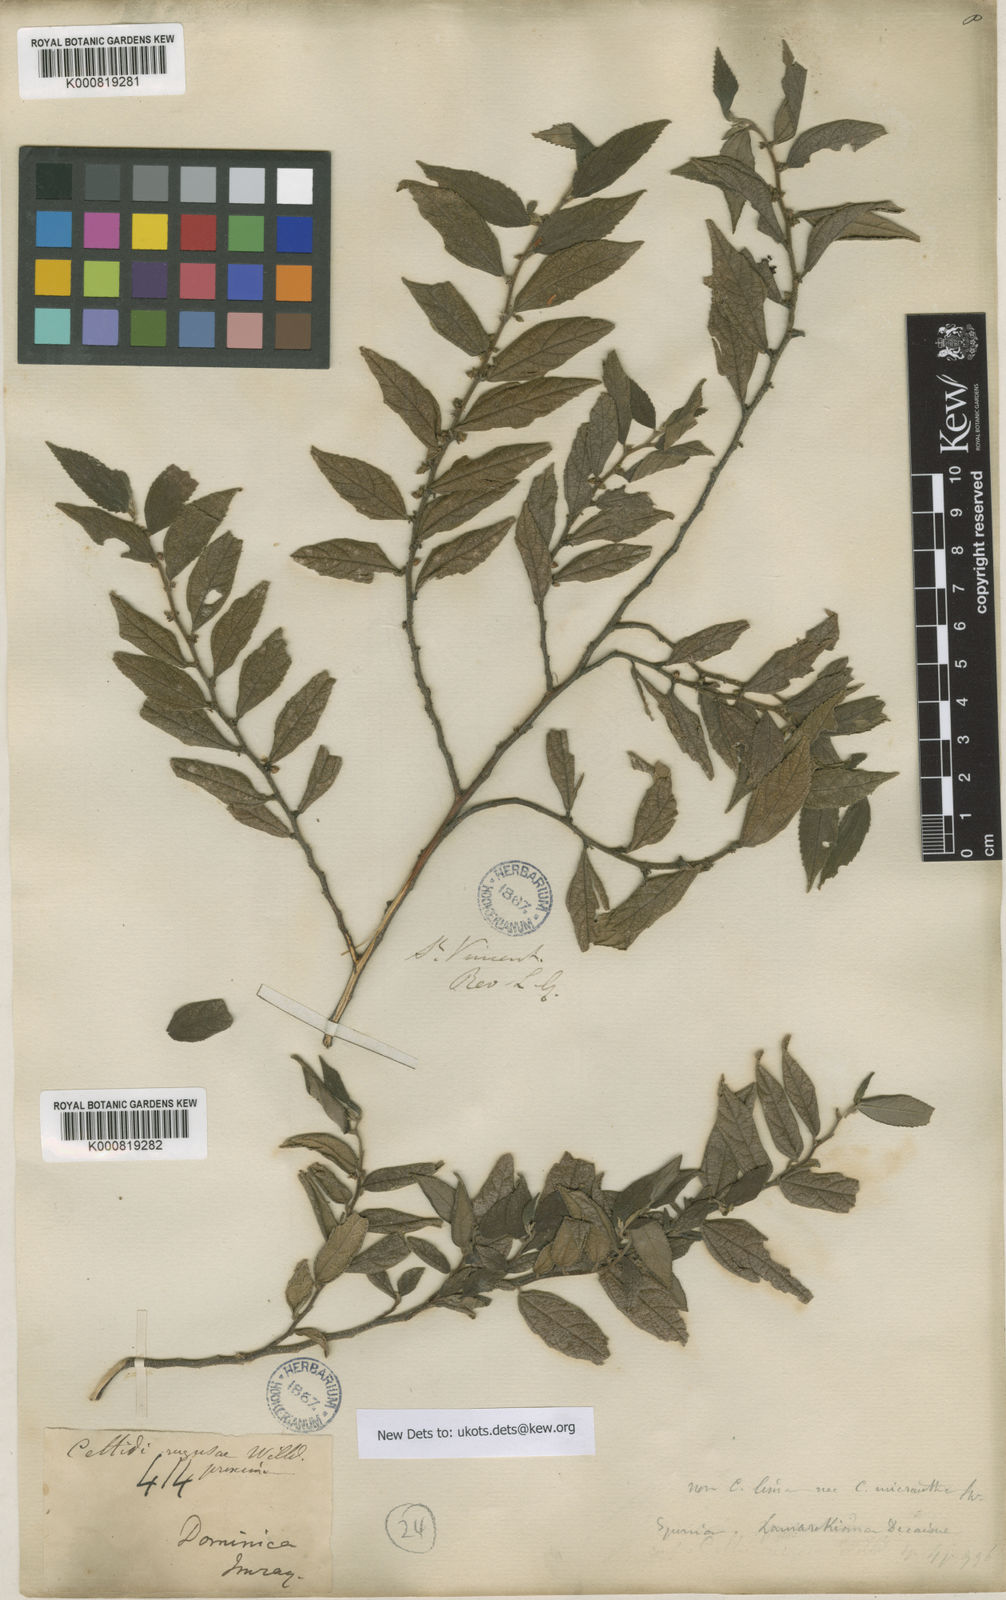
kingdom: Plantae
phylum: Tracheophyta
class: Magnoliopsida
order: Rosales
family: Cannabaceae
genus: Trema
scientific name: Trema lamarckianum
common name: Lamarck's trema
